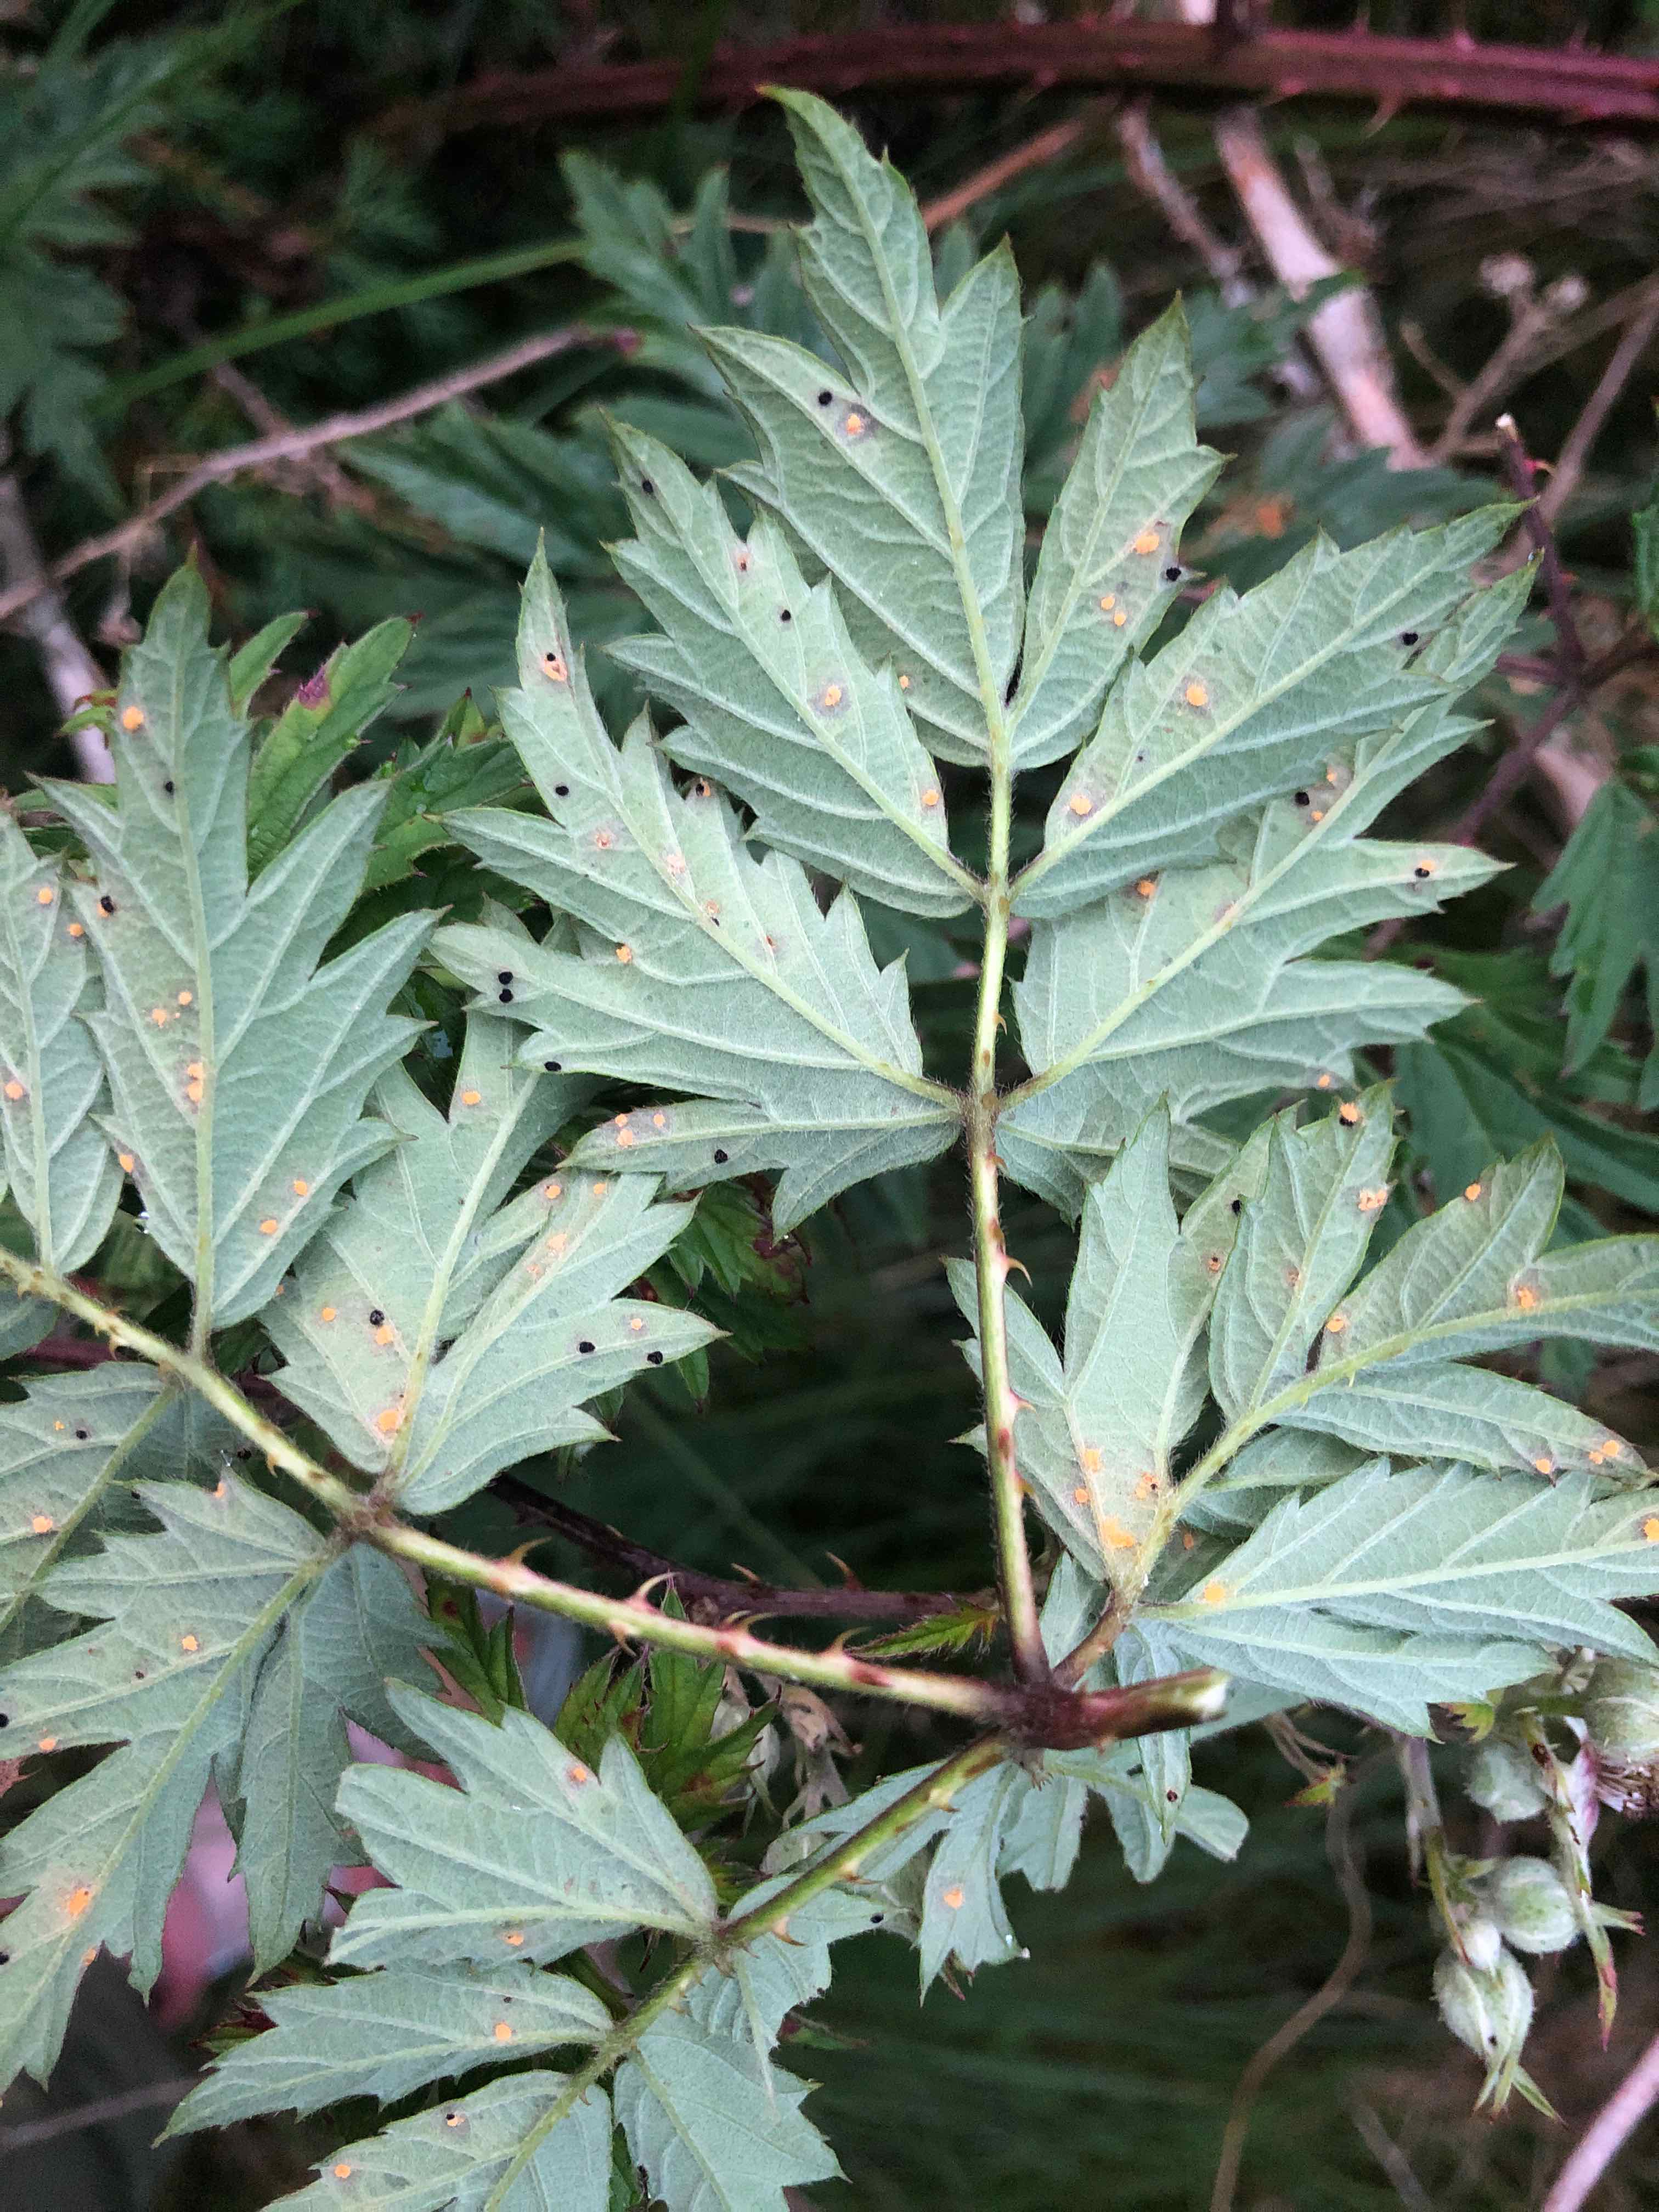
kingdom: Fungi
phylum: Basidiomycota
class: Pucciniomycetes
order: Pucciniales
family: Phragmidiaceae
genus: Phragmidium
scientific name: Phragmidium violaceum
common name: violet flercellerust
